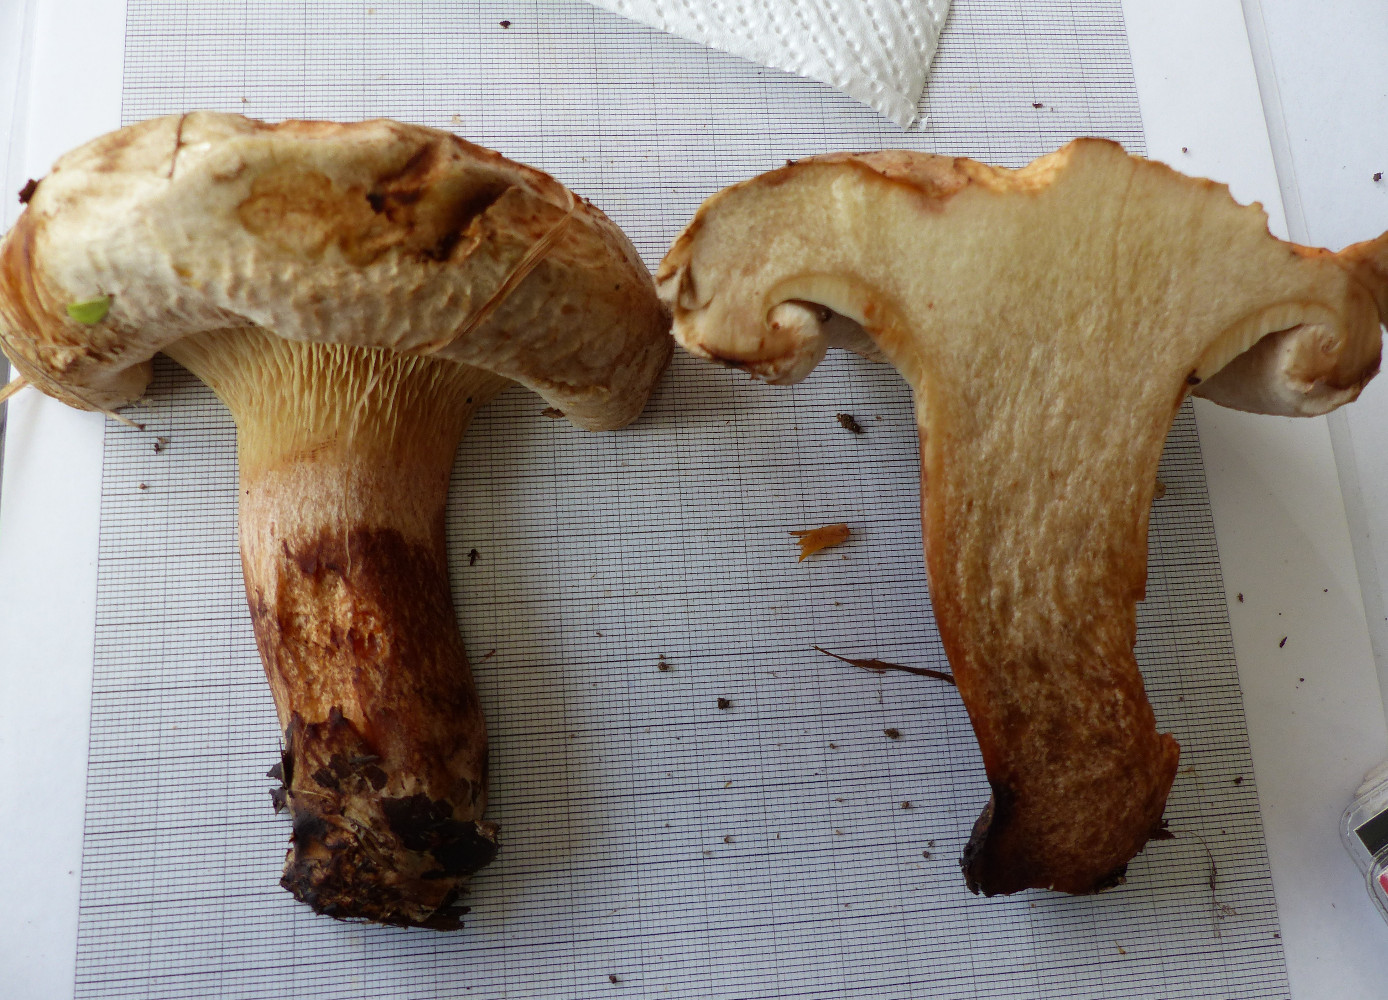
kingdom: Fungi
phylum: Basidiomycota
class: Agaricomycetes
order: Boletales
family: Paxillaceae
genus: Paxillus
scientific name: Paxillus obscurisporus
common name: mahognisporet netbladhat
